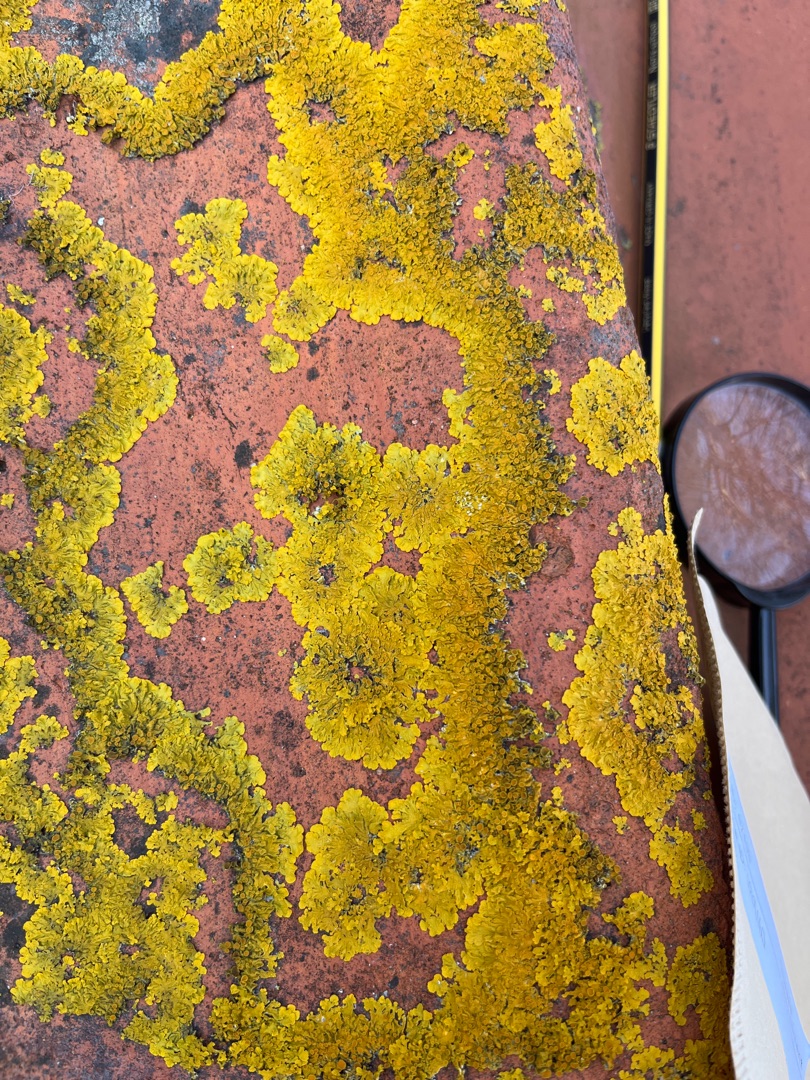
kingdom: Fungi
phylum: Ascomycota
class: Lecanoromycetes
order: Teloschistales
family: Teloschistaceae
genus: Xanthoria
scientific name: Xanthoria parietina
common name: Almindelig væggelav
